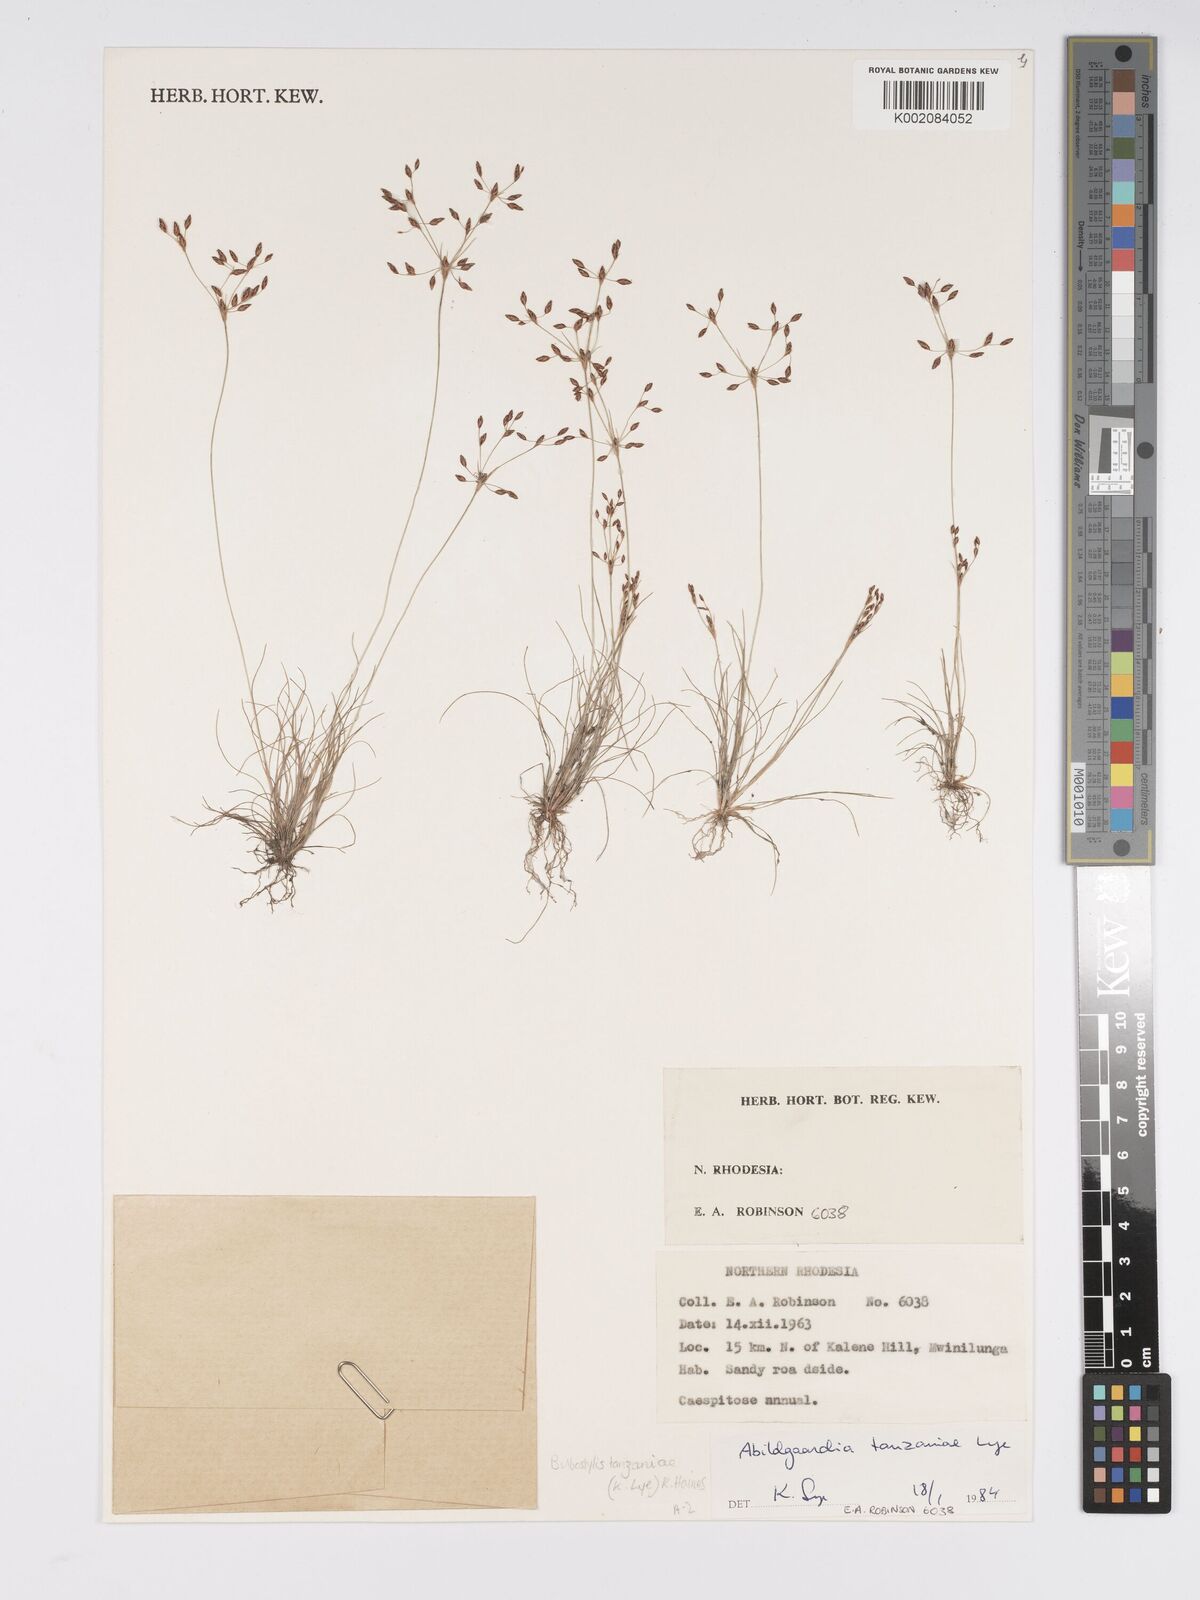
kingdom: Plantae
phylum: Tracheophyta
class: Liliopsida
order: Poales
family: Cyperaceae
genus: Bulbostylis
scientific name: Bulbostylis tanzaniae
